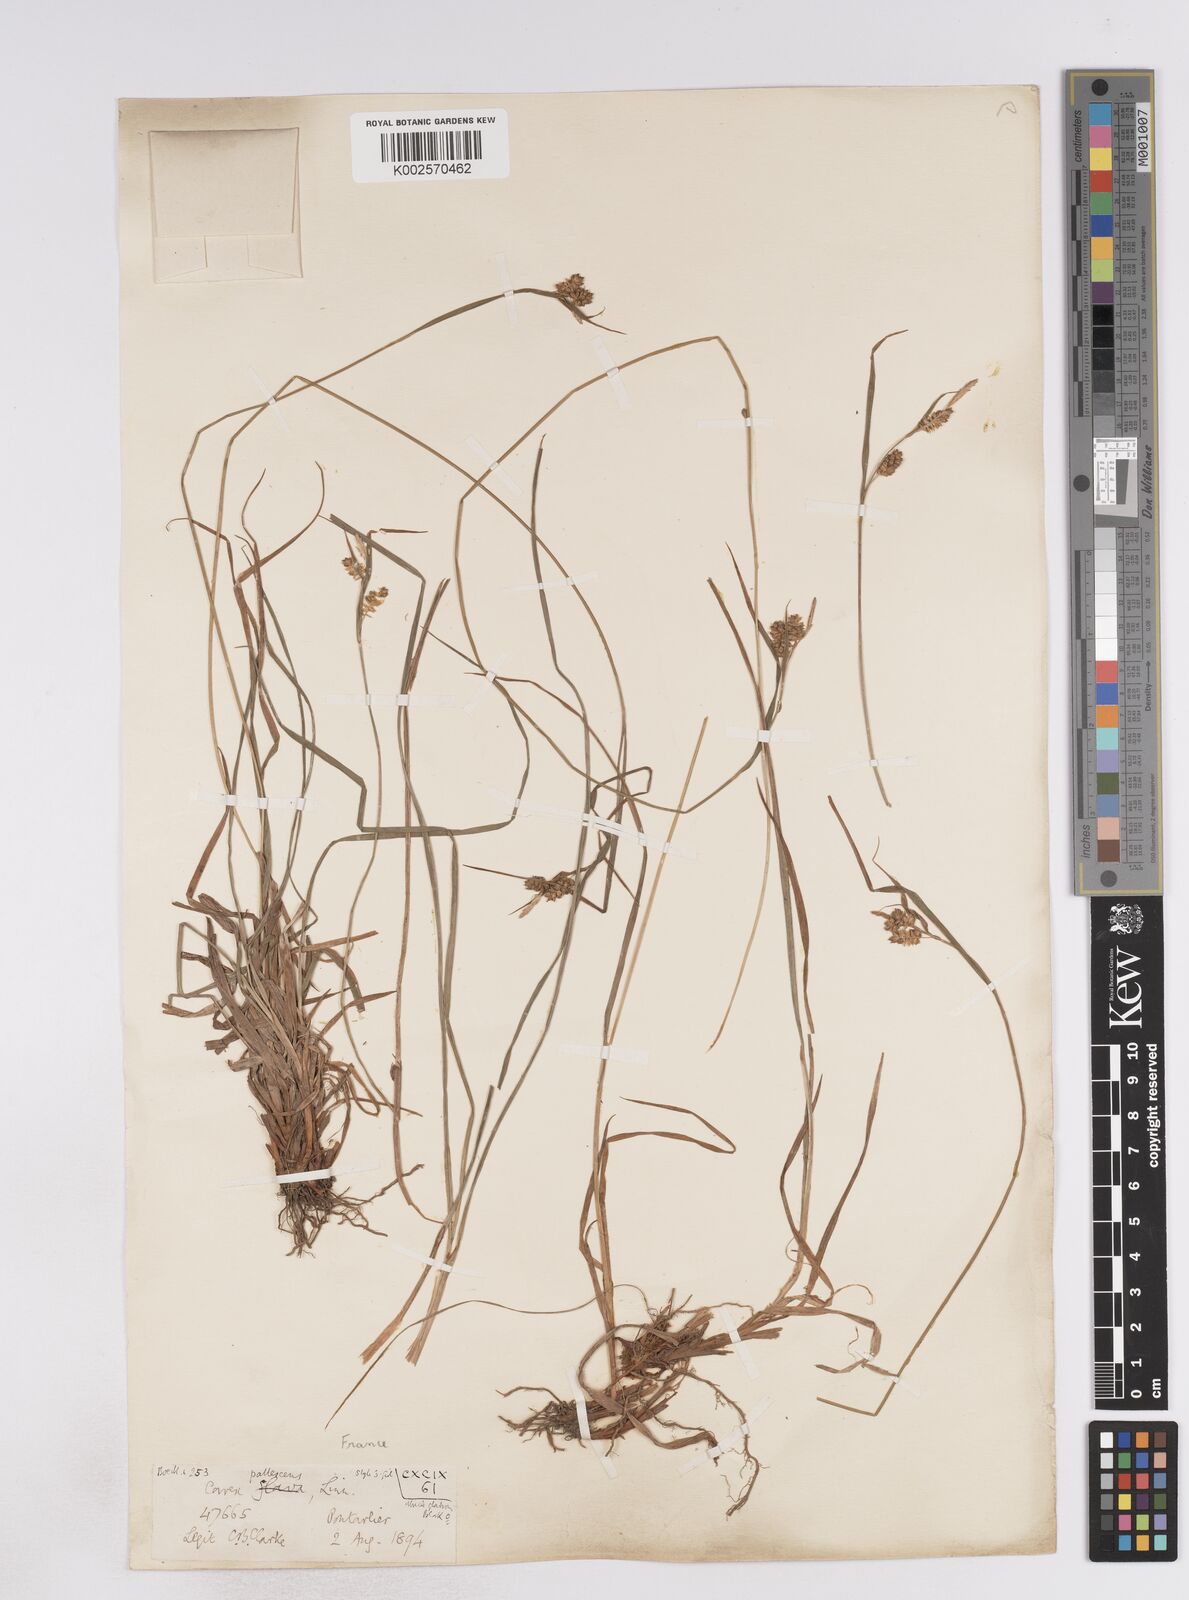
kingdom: Plantae
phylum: Tracheophyta
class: Liliopsida
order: Poales
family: Cyperaceae
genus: Carex
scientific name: Carex pallescens
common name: Pale sedge
